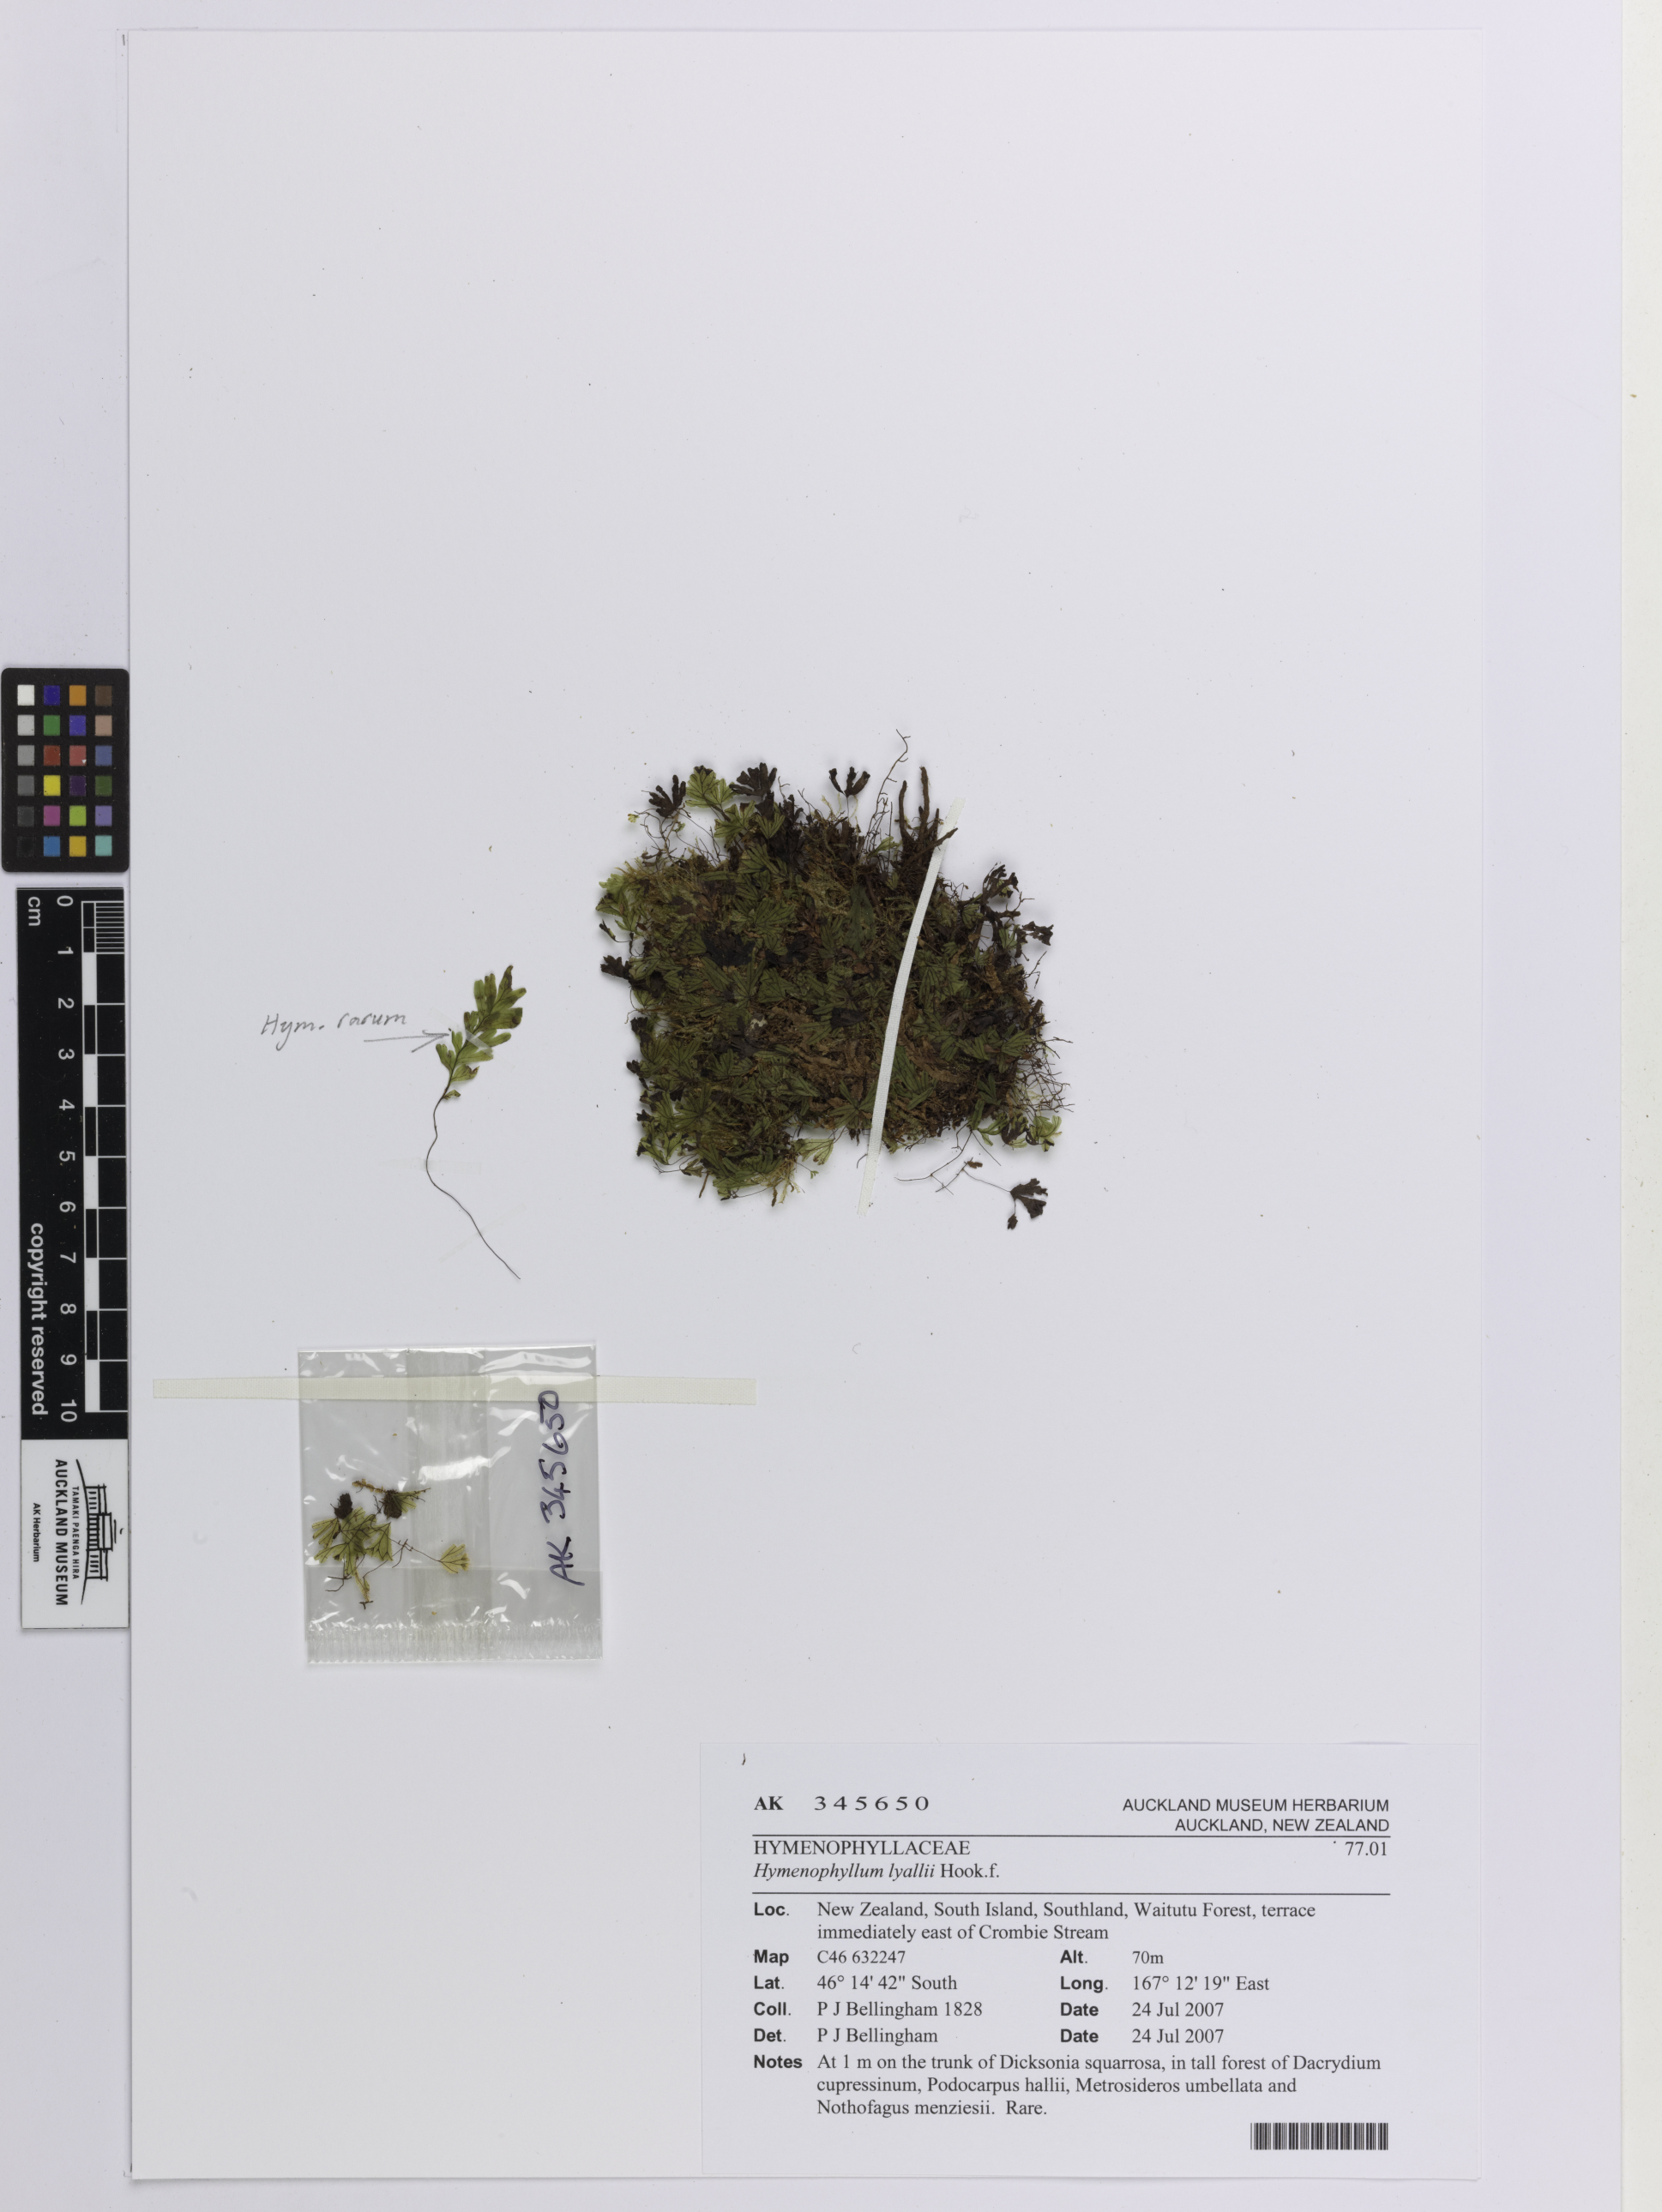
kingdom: Plantae
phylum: Tracheophyta
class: Polypodiopsida
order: Hymenophyllales
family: Hymenophyllaceae
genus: Hymenophyllum
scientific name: Hymenophyllum lyallii
